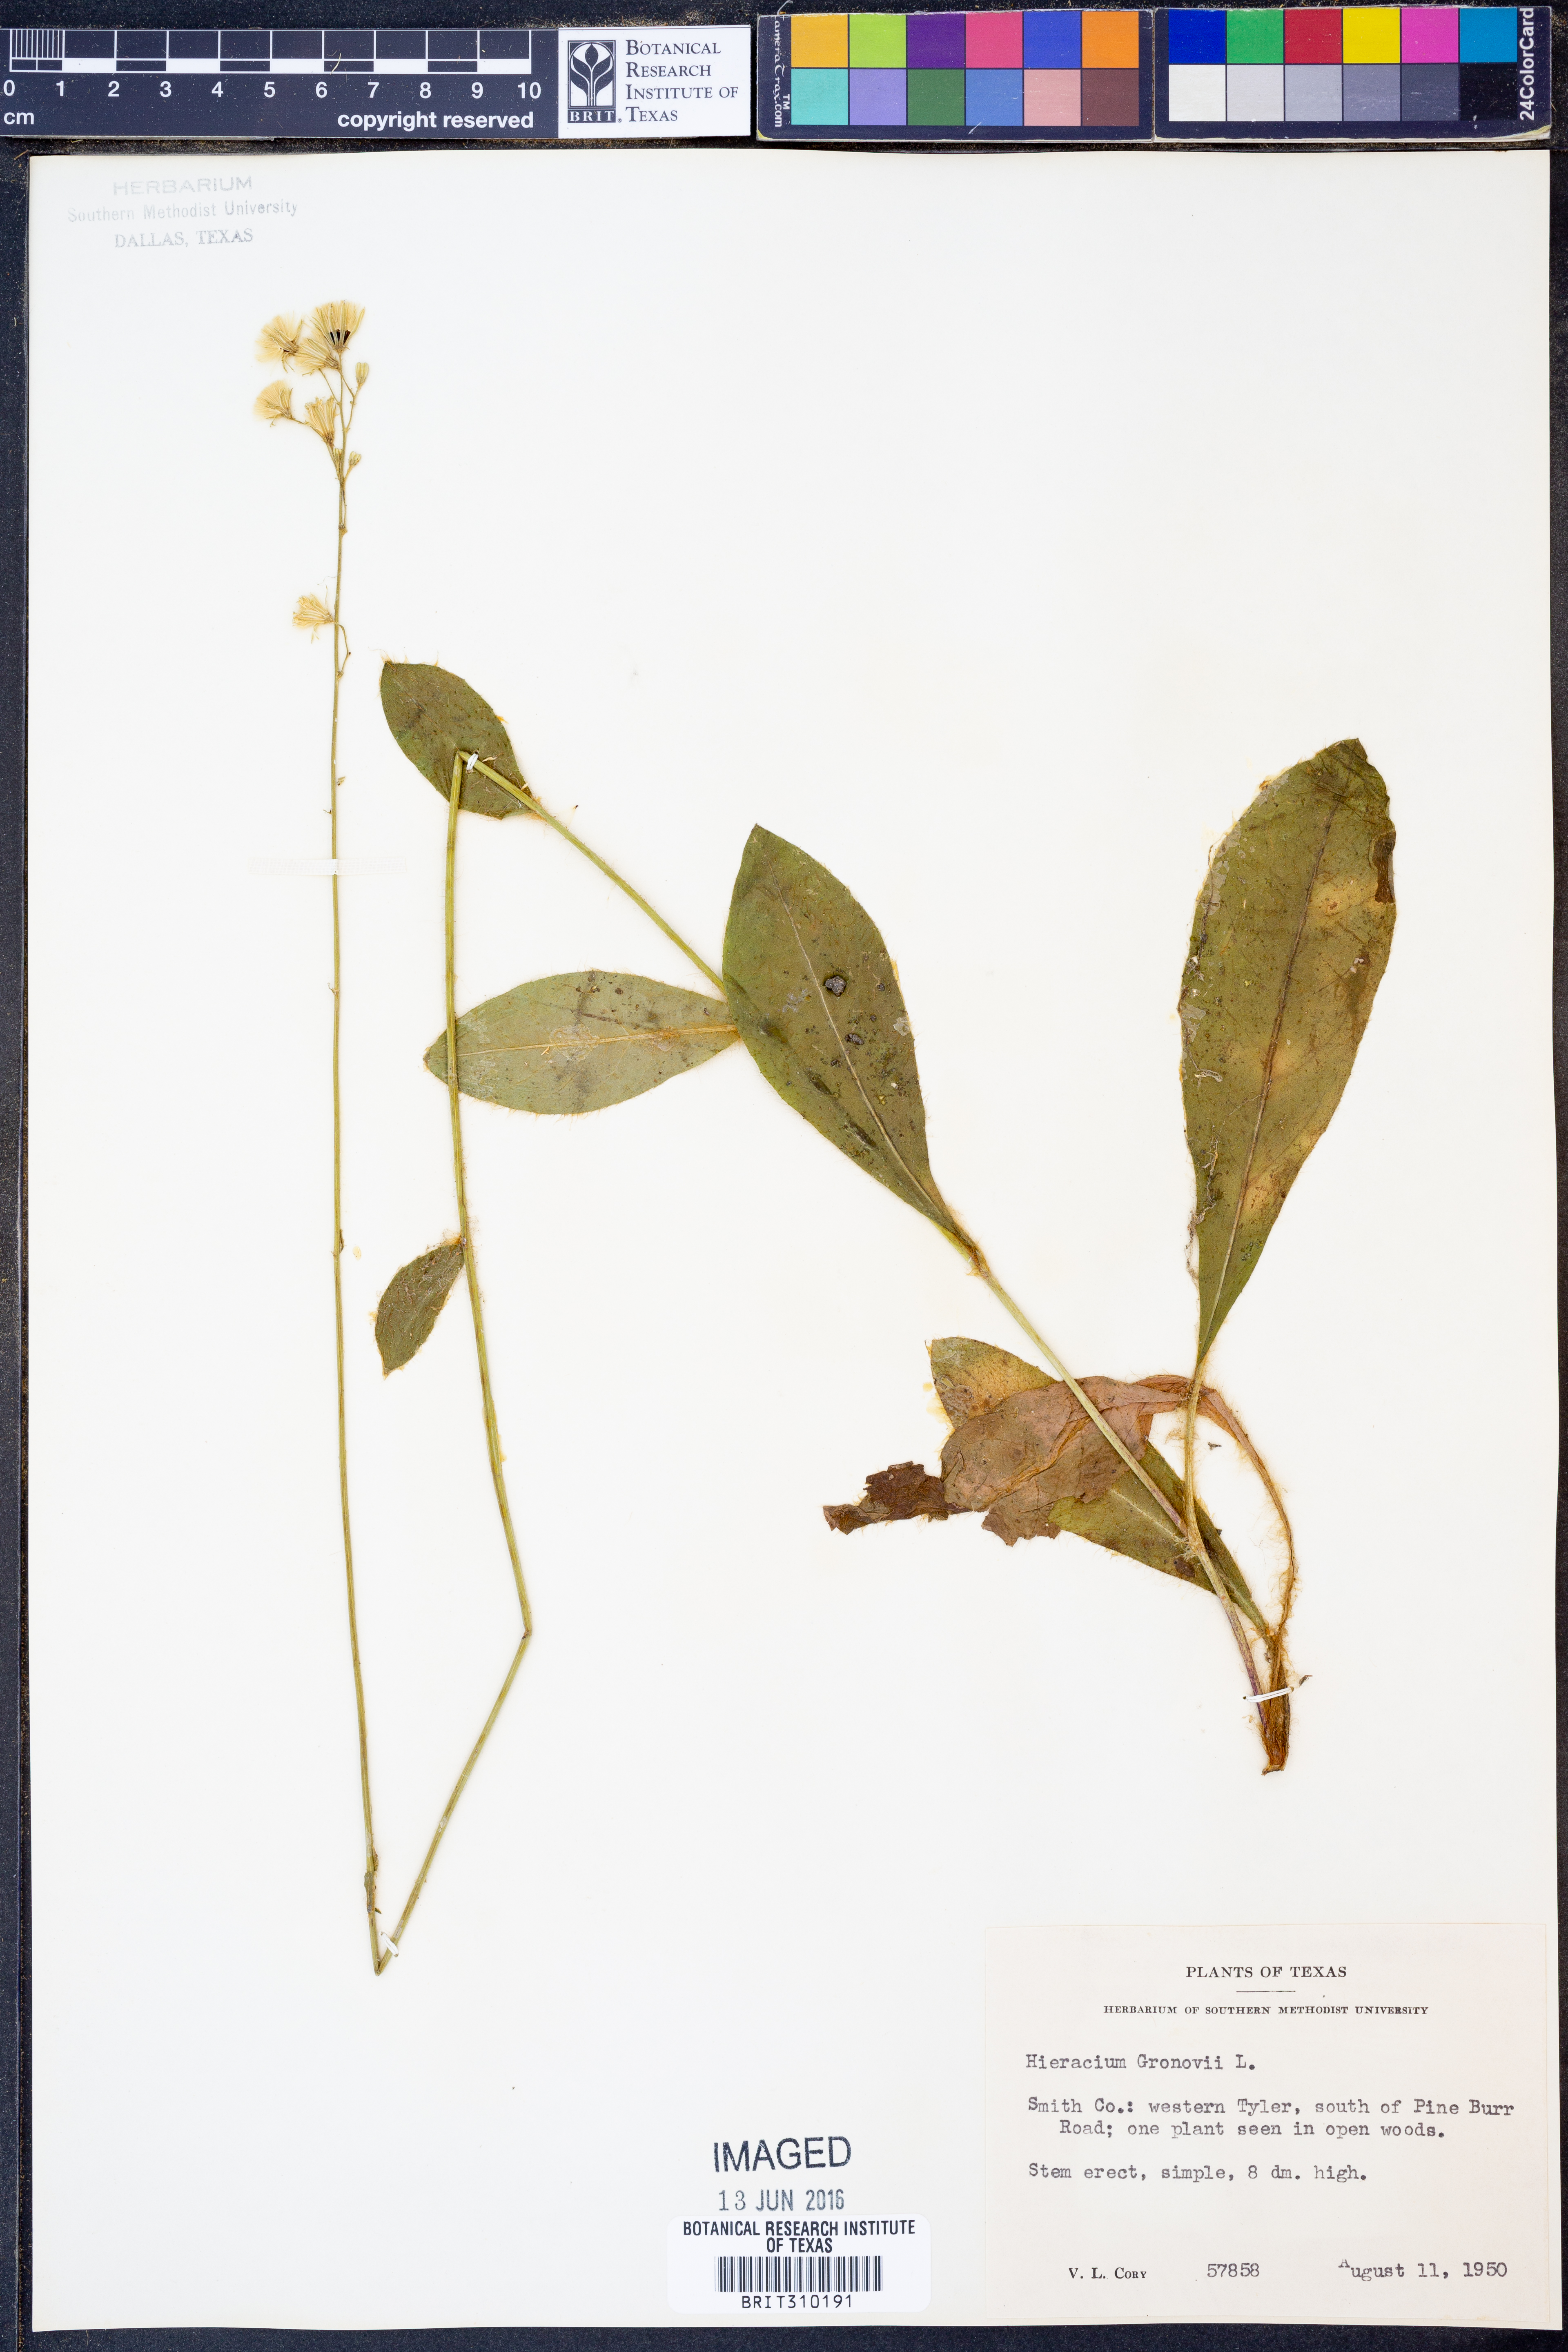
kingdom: Plantae
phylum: Tracheophyta
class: Magnoliopsida
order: Asterales
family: Asteraceae
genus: Hieracium
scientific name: Hieracium gronovii
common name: Beaked hawkweed
